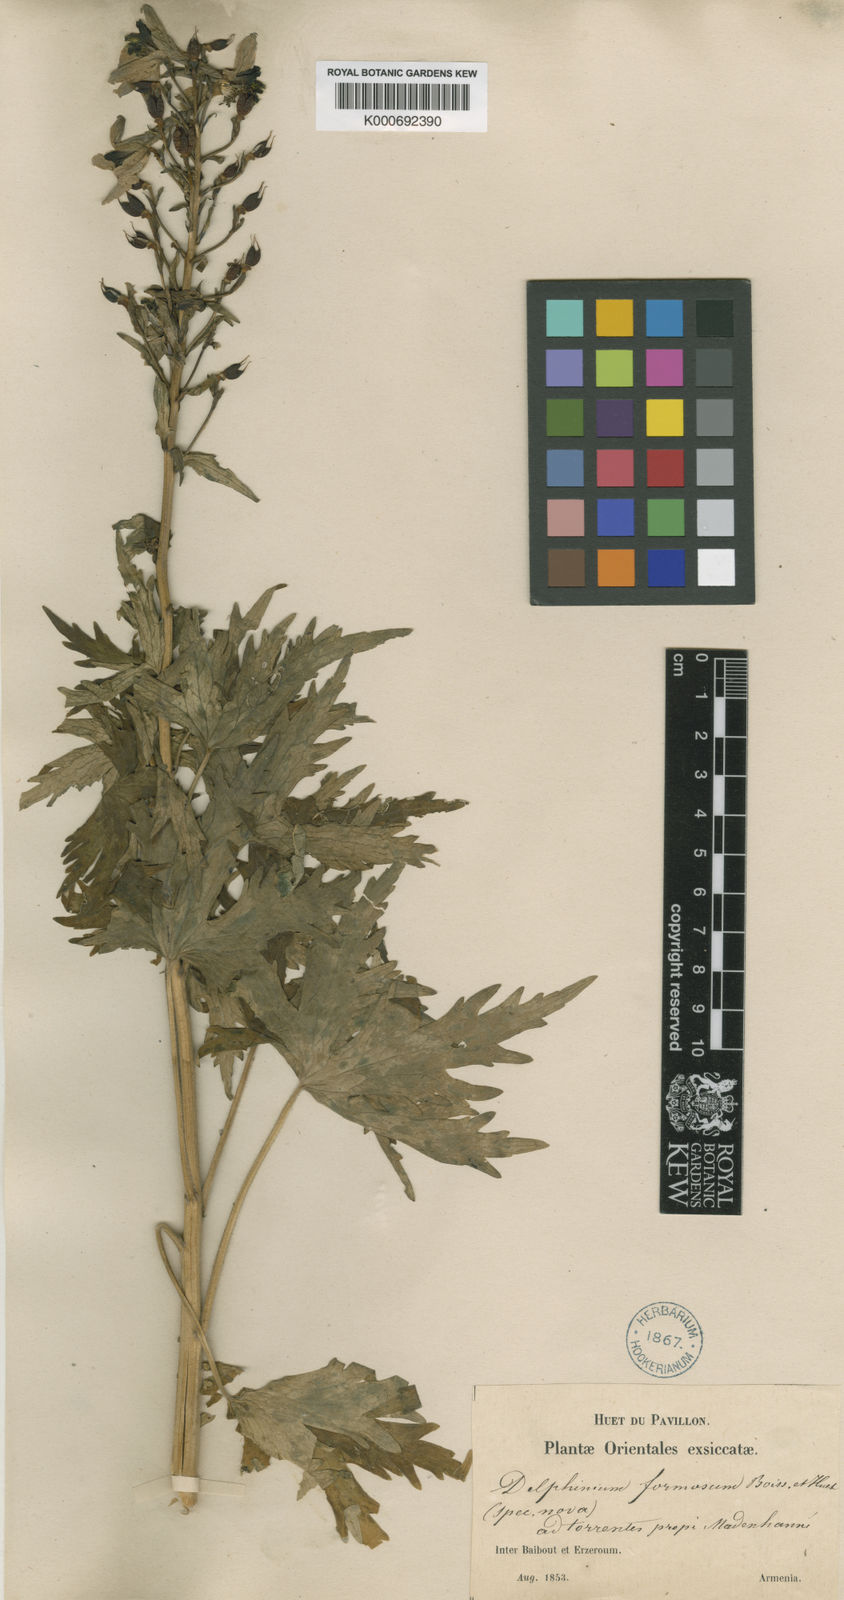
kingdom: Plantae
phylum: Tracheophyta
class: Magnoliopsida
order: Ranunculales
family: Ranunculaceae
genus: Delphinium
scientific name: Delphinium biternatum
